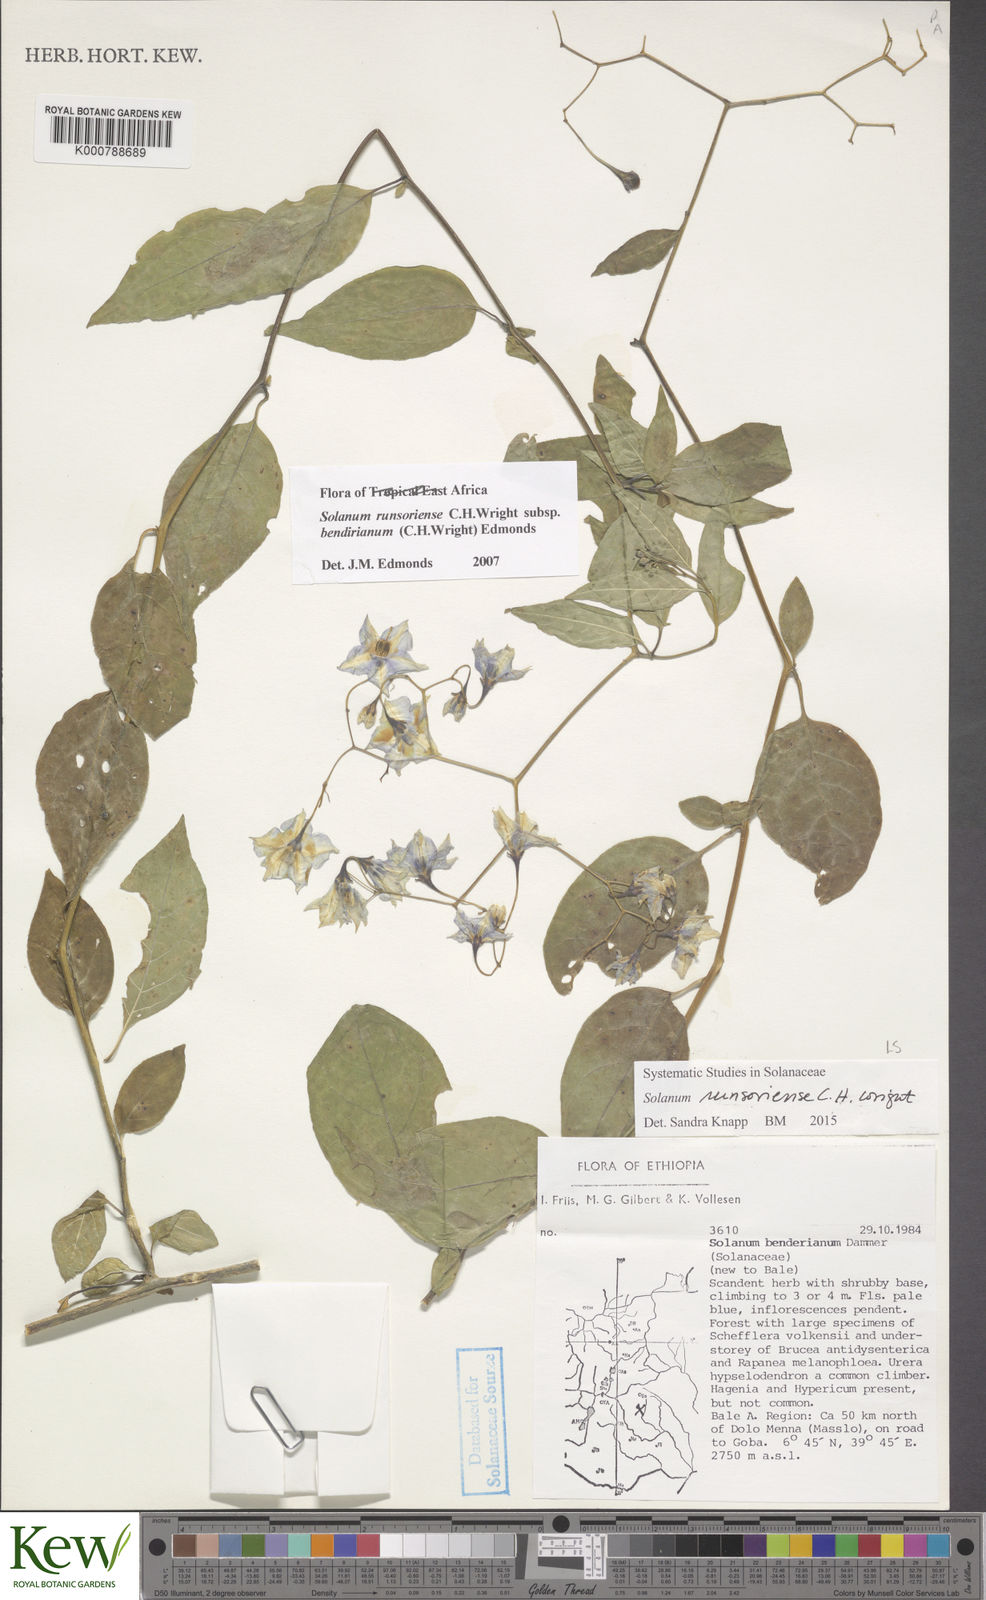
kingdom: Plantae
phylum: Tracheophyta
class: Magnoliopsida
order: Solanales
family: Solanaceae
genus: Solanum
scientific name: Solanum runsoriense
